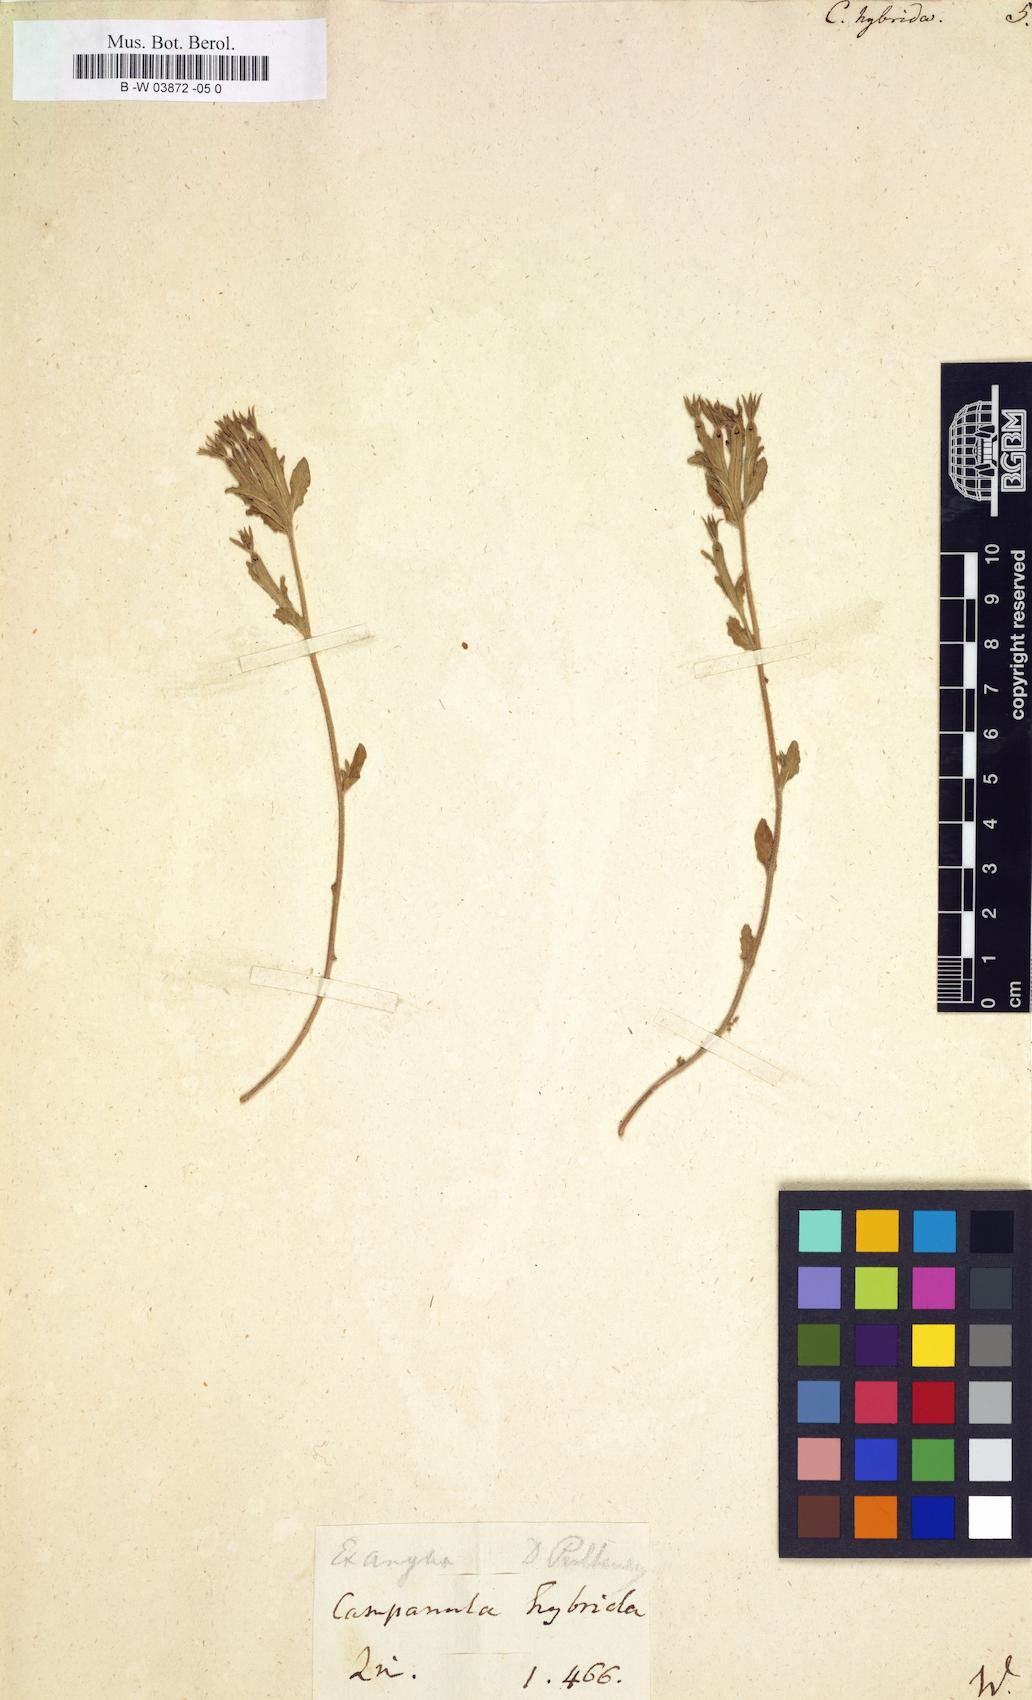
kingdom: Plantae
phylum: Tracheophyta
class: Magnoliopsida
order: Asterales
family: Campanulaceae
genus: Legousia
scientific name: Legousia hybrida
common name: Venus's-looking-glass
